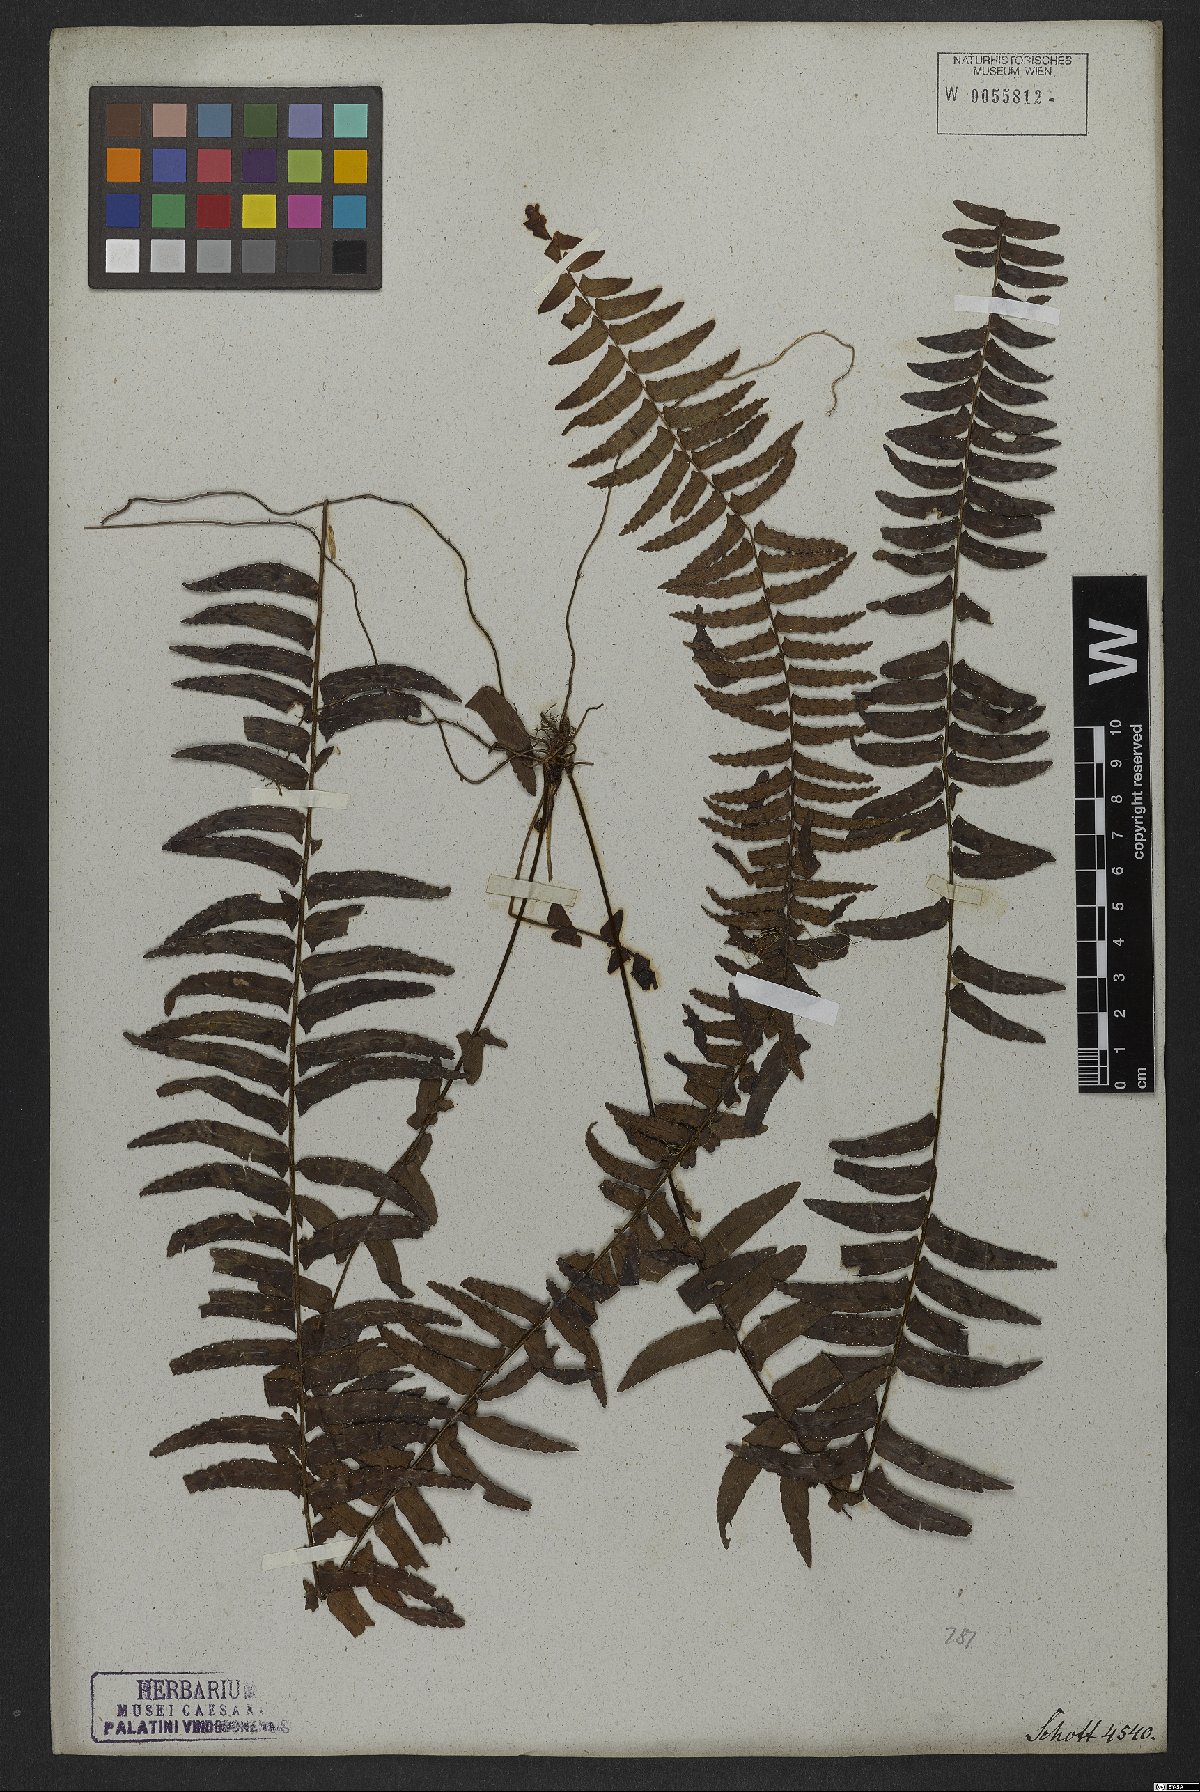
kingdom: Plantae
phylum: Tracheophyta
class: Polypodiopsida
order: Polypodiales
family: Nephrolepidaceae
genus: Nephrolepis
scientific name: Nephrolepis exaltata
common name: Sword fern
